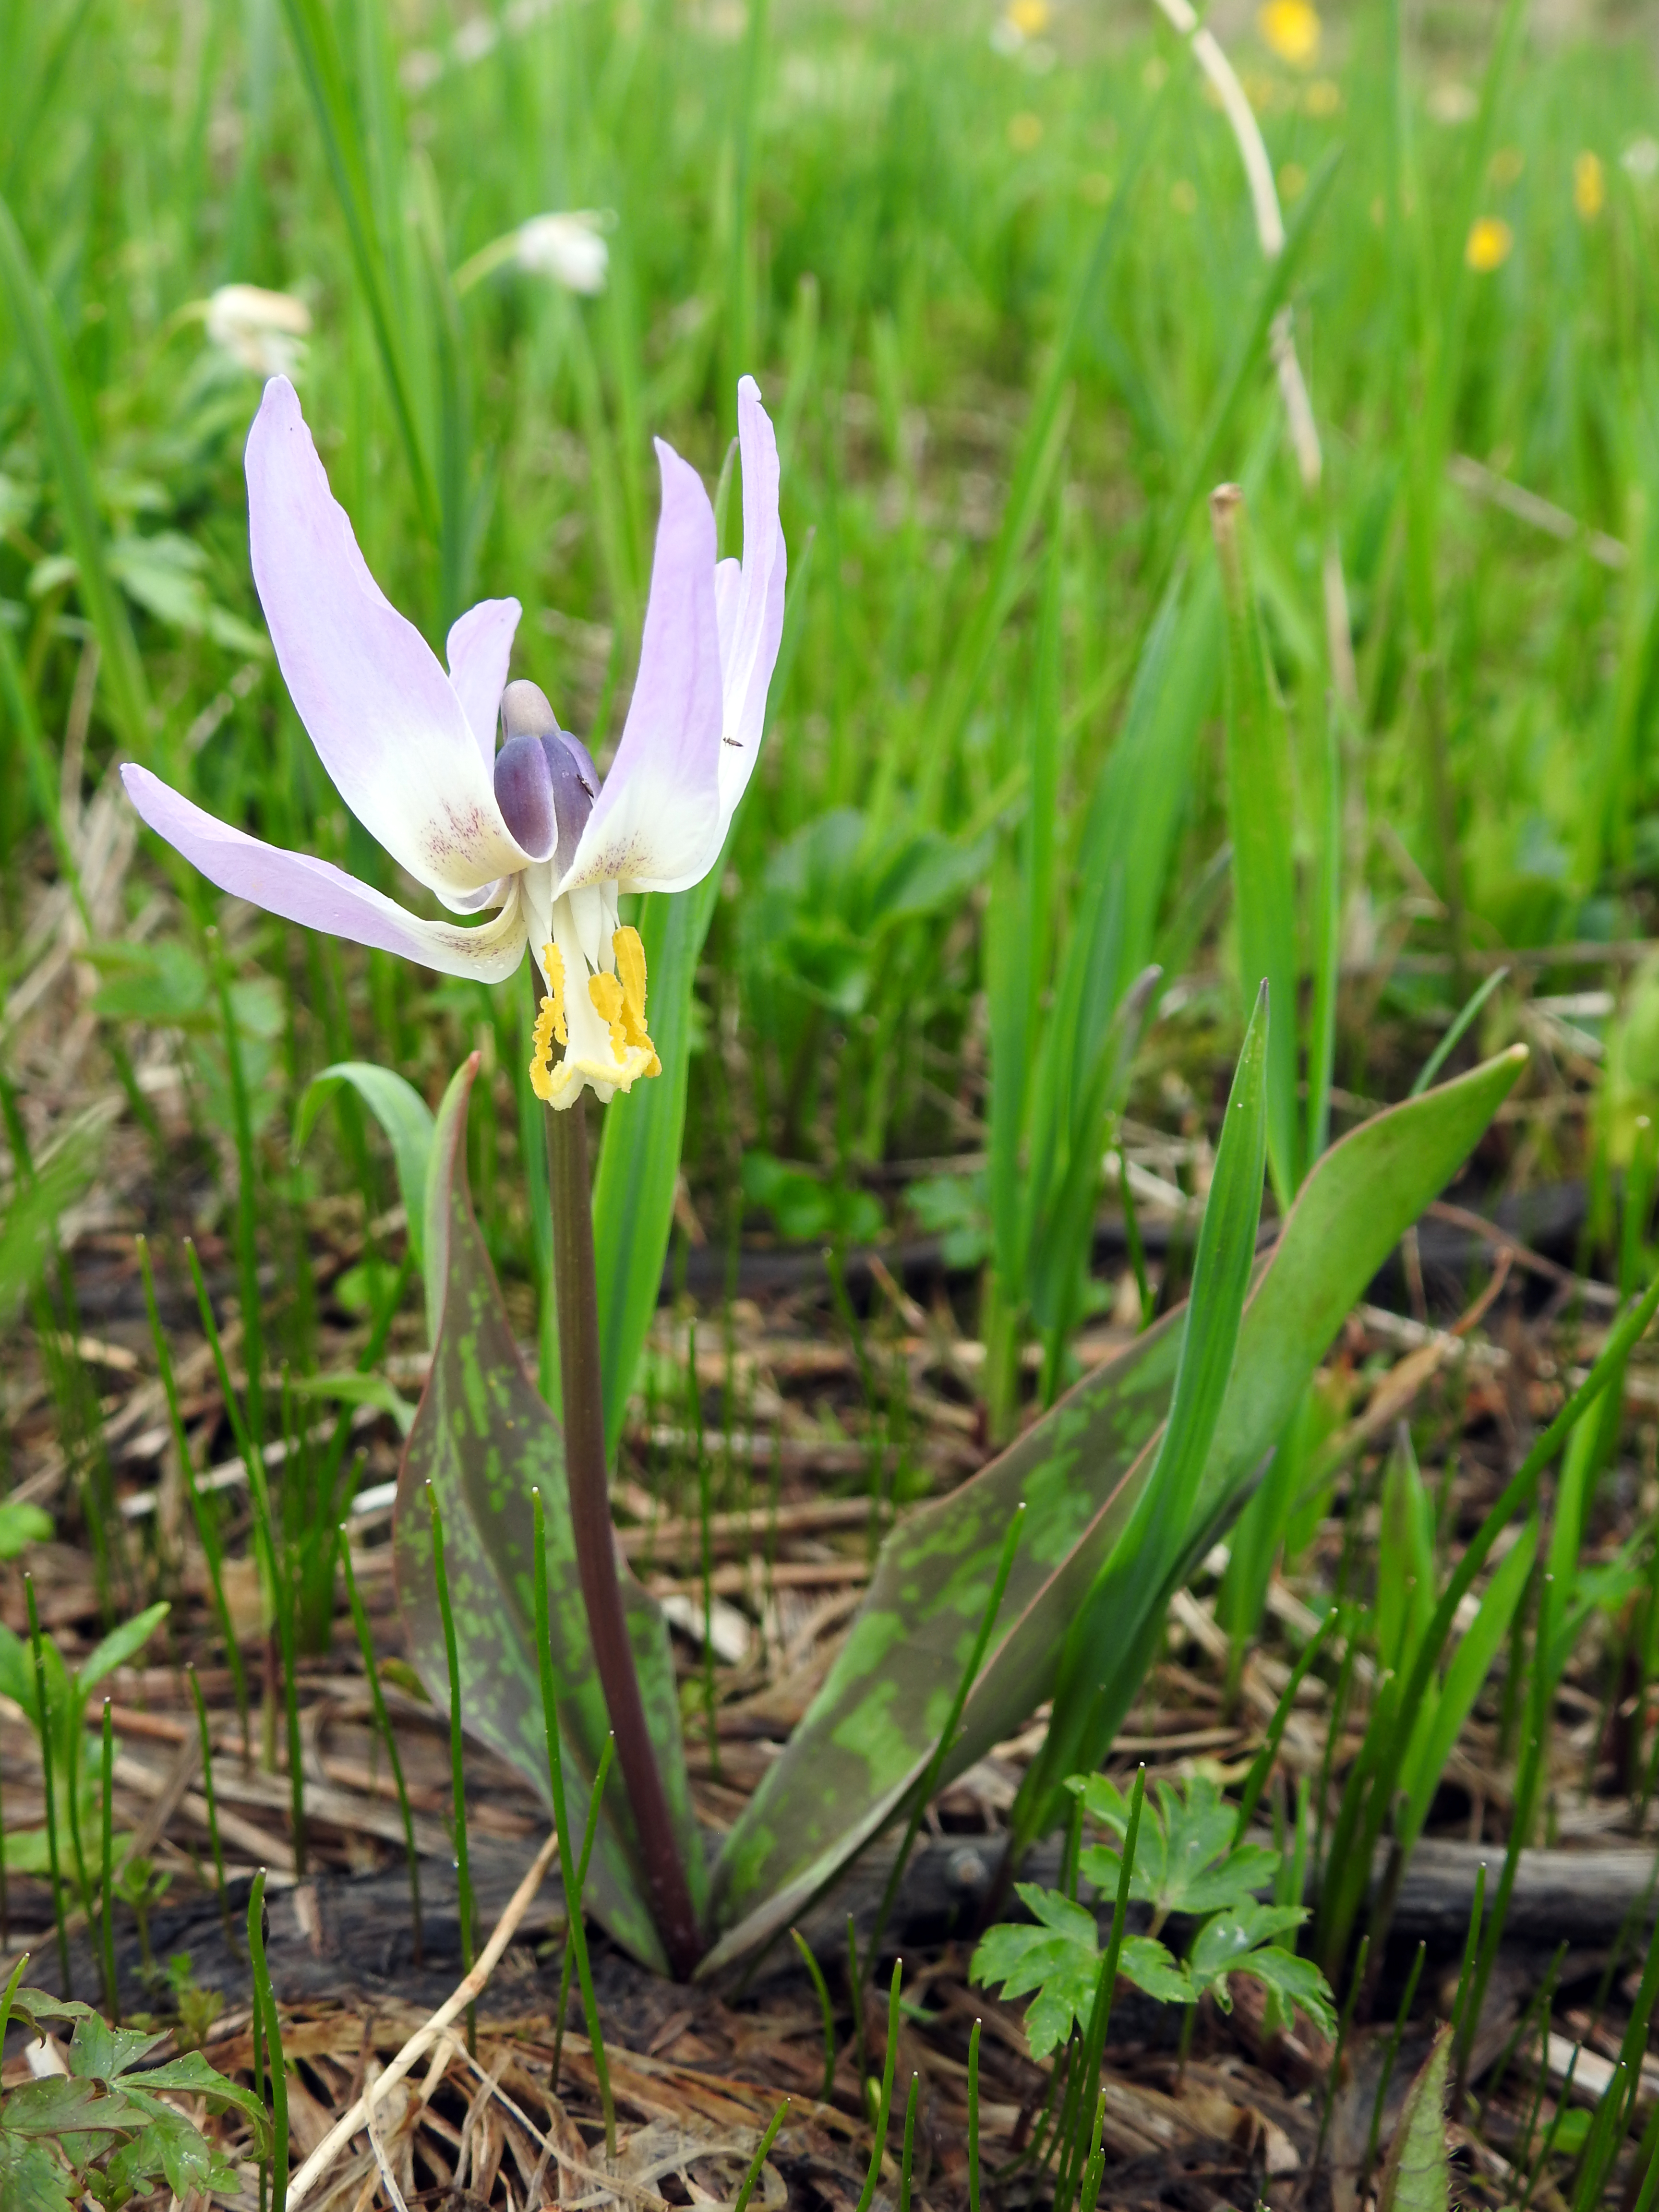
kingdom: Plantae
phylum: Tracheophyta
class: Liliopsida
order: Liliales
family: Liliaceae
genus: Erythronium
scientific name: Erythronium sibiricum
